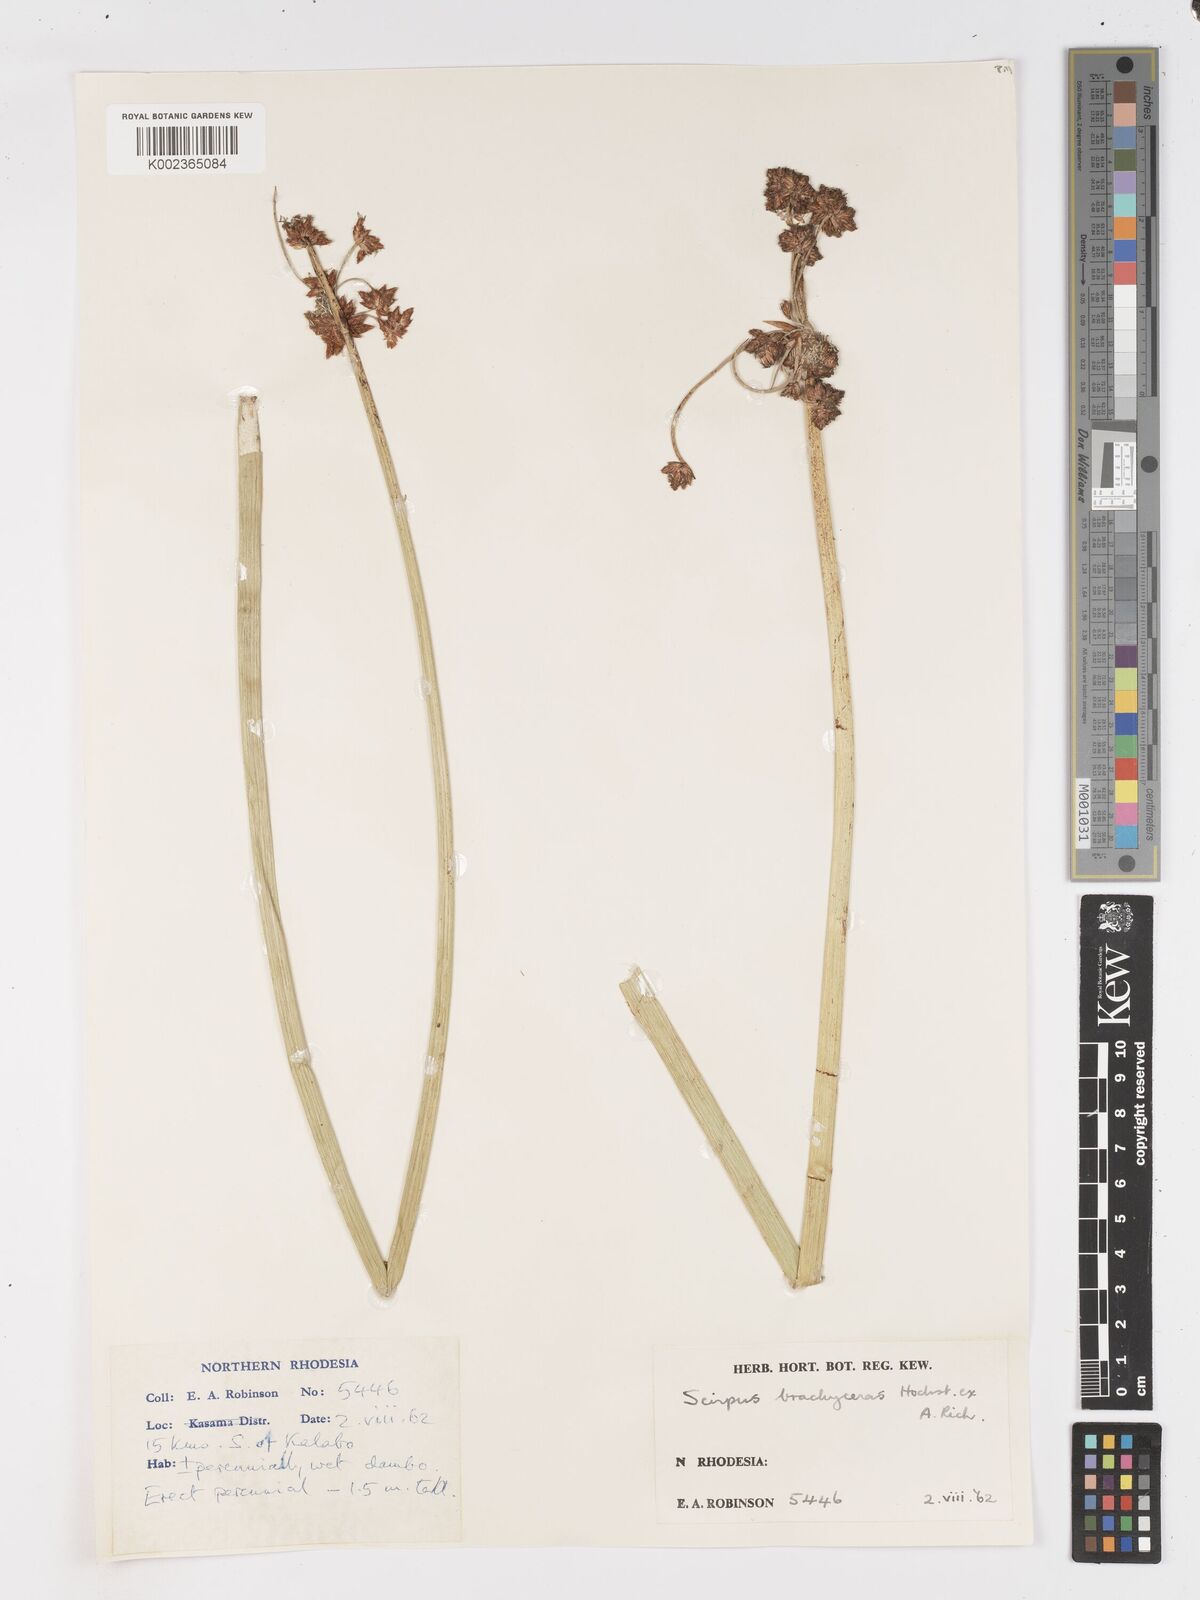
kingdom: Plantae
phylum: Tracheophyta
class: Liliopsida
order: Poales
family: Cyperaceae
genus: Schoenoplectiella
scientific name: Schoenoplectiella corymbosa
